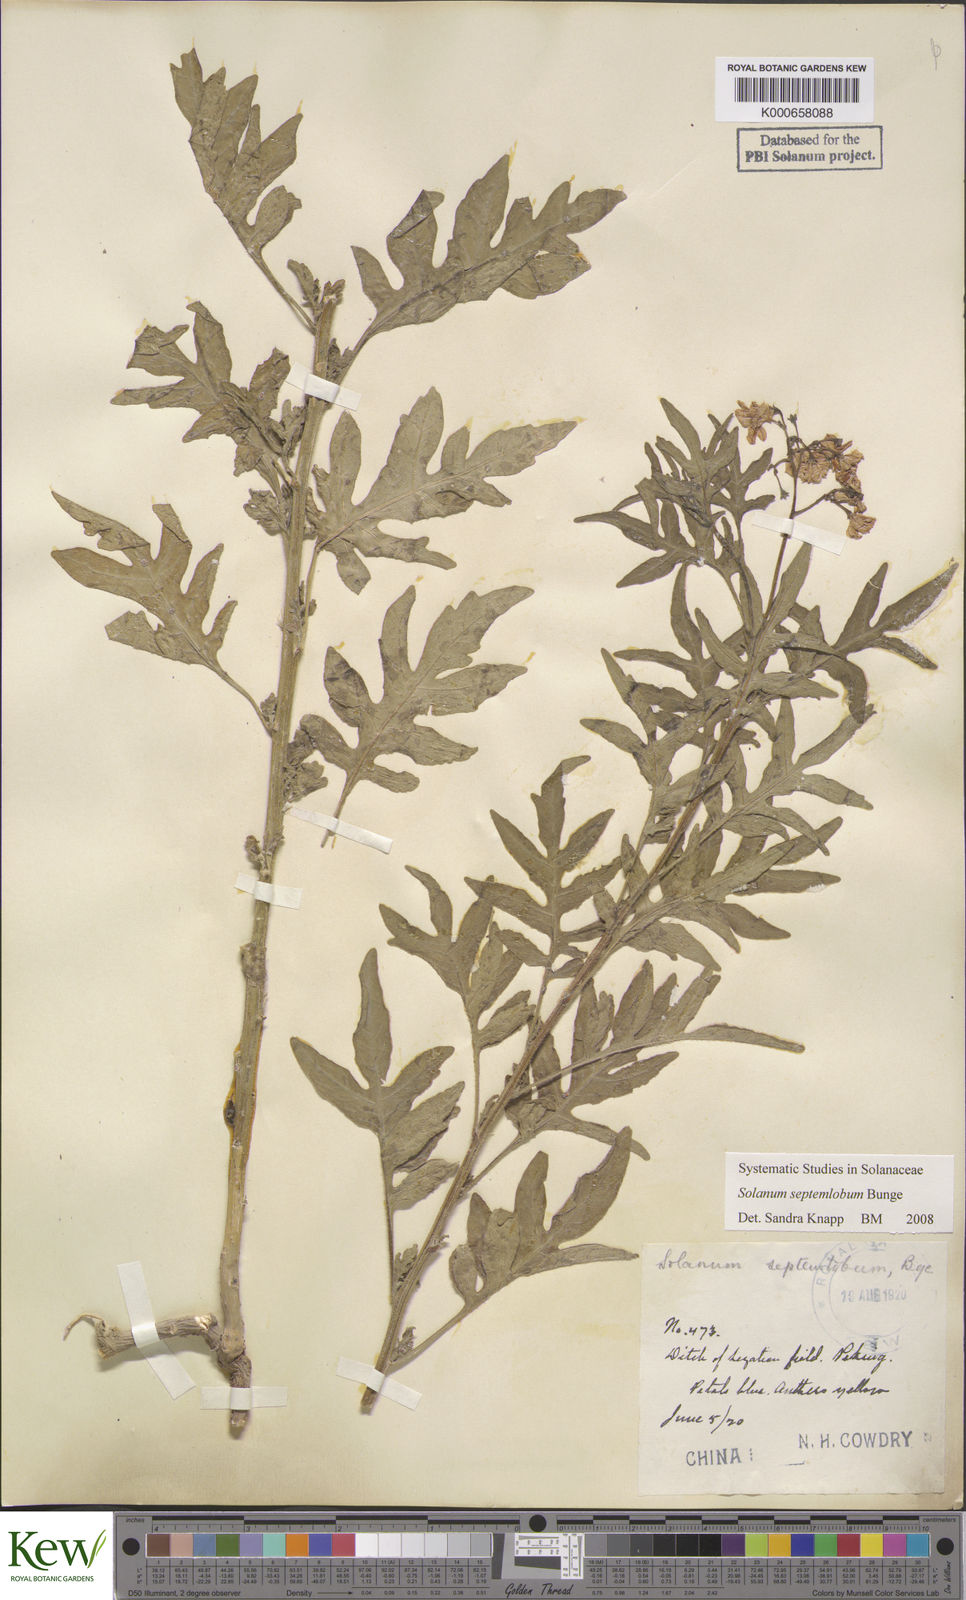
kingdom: Plantae
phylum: Tracheophyta
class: Magnoliopsida
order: Solanales
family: Solanaceae
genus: Solanum
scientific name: Solanum septemlobum
